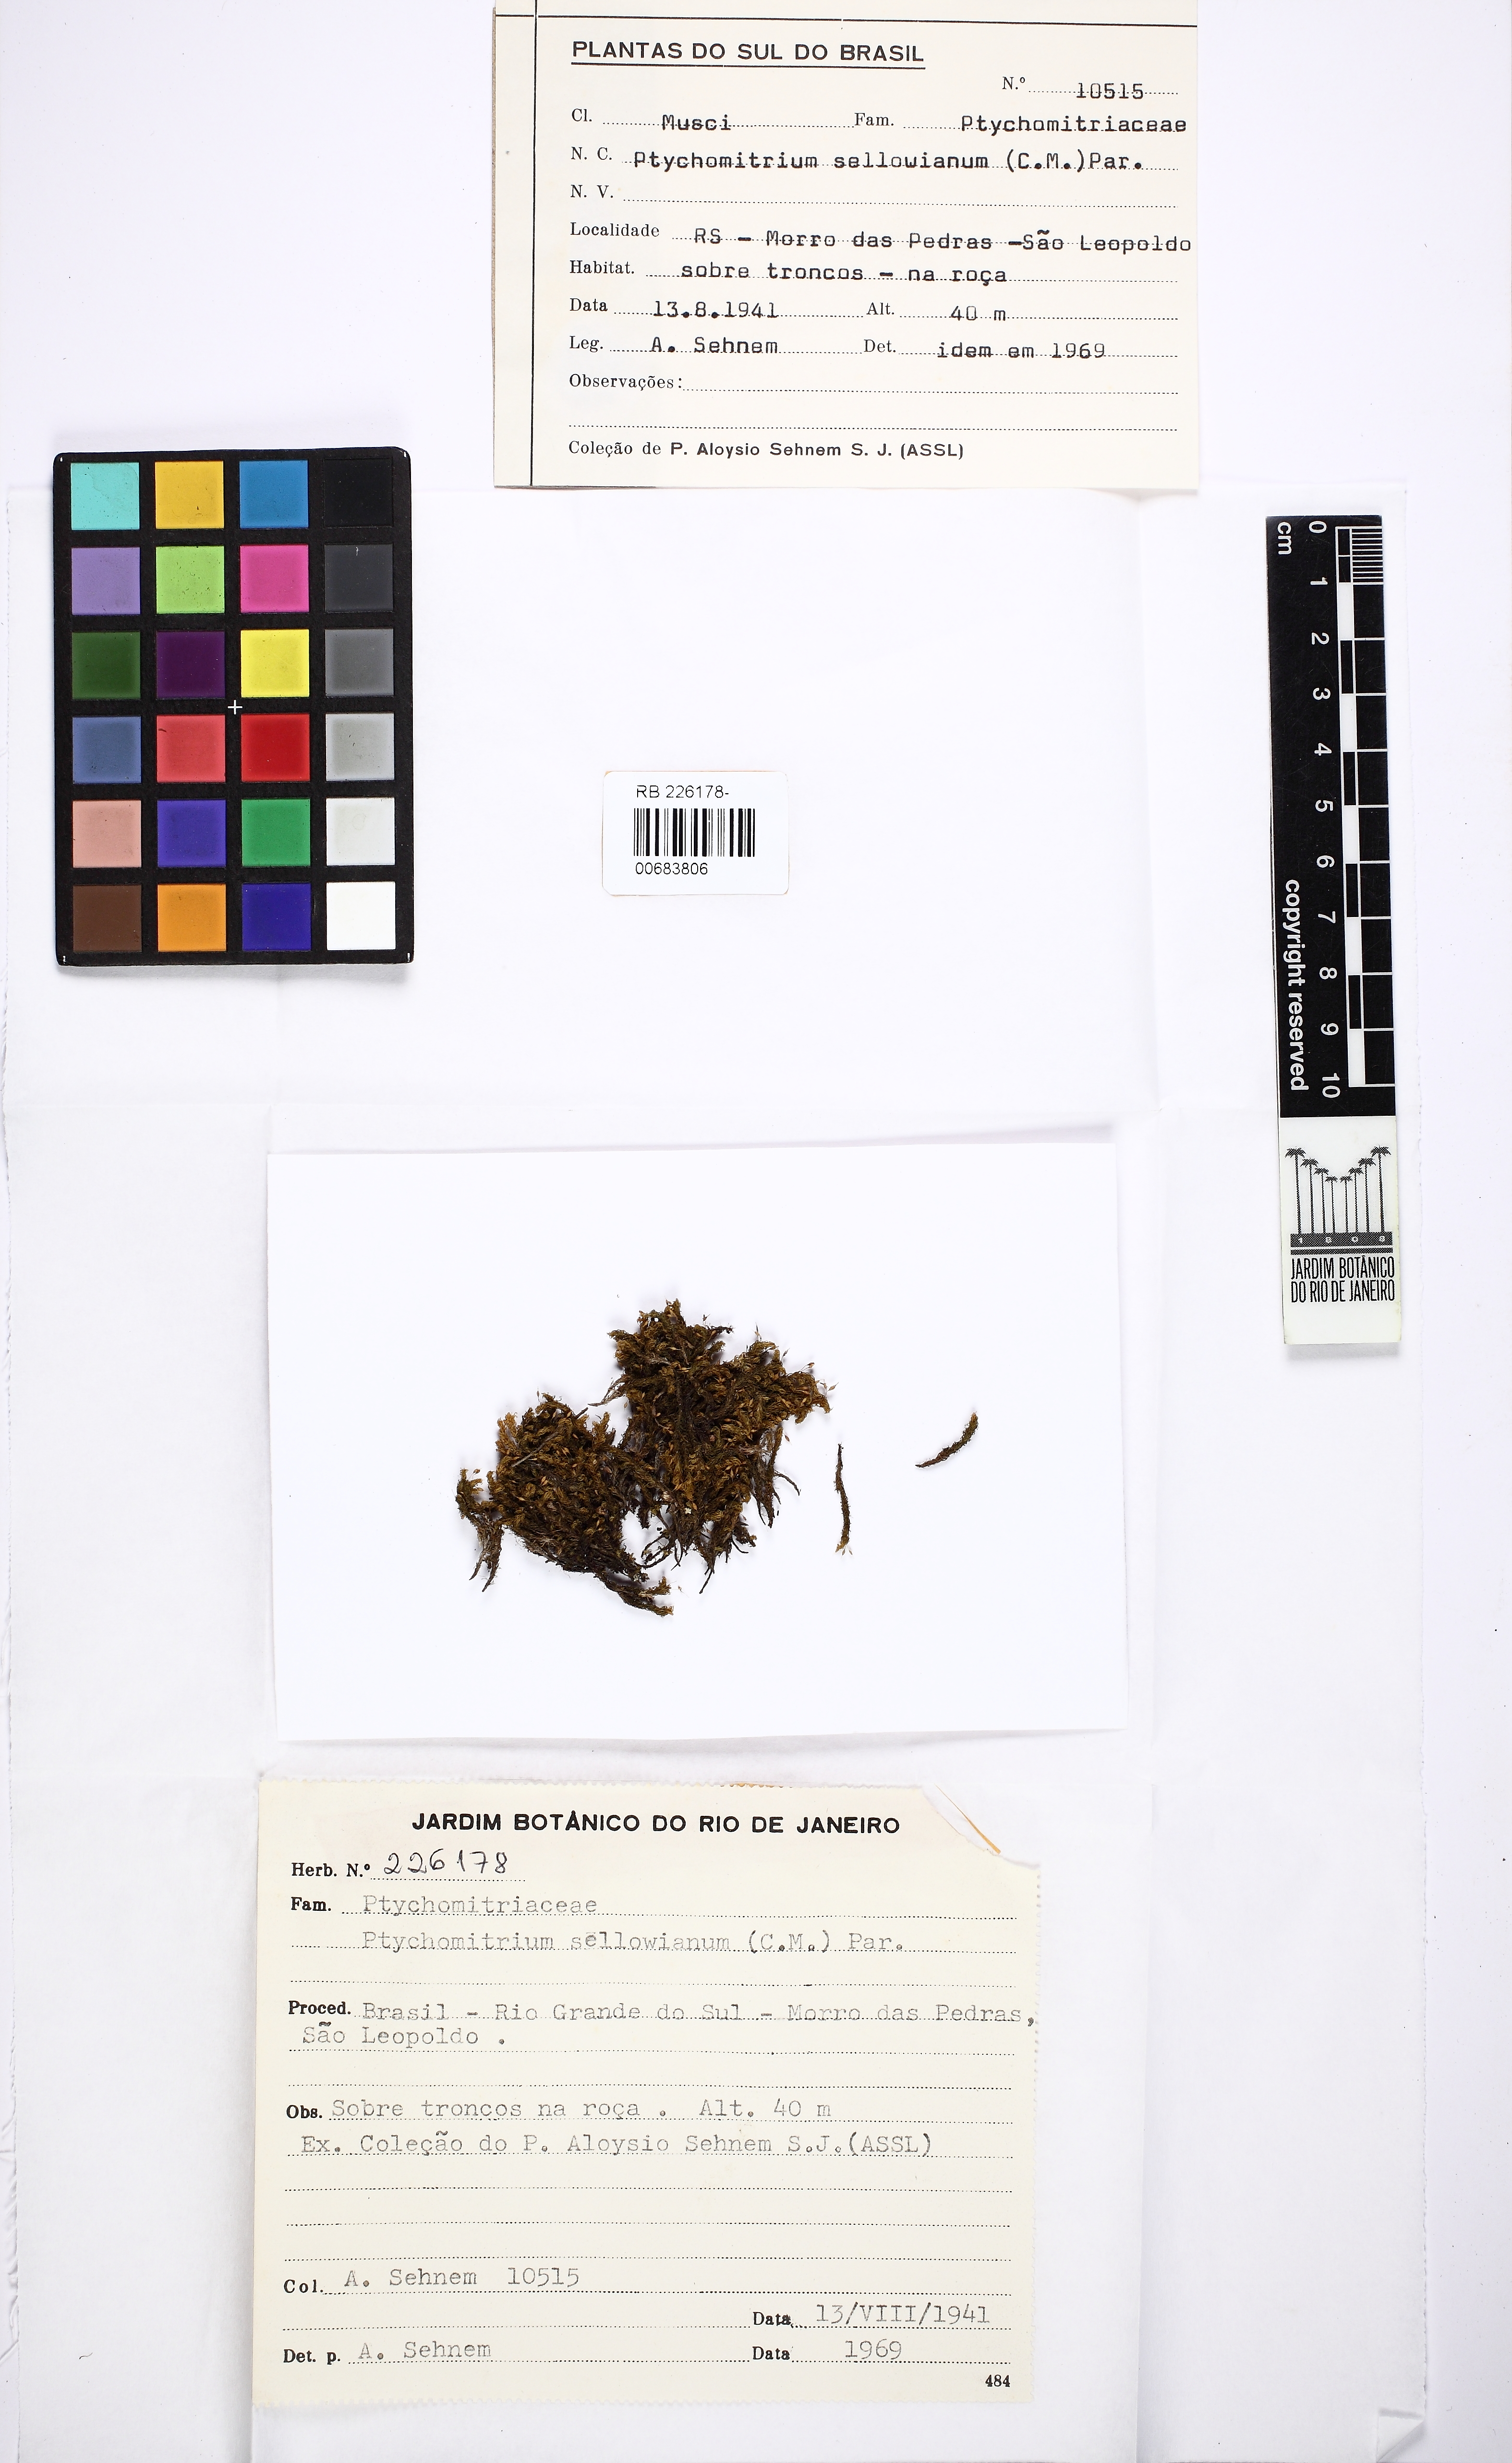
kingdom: Plantae
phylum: Bryophyta
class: Bryopsida
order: Grimmiales
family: Ptychomitriaceae
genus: Ptychomitrium
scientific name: Ptychomitrium sellowianum
